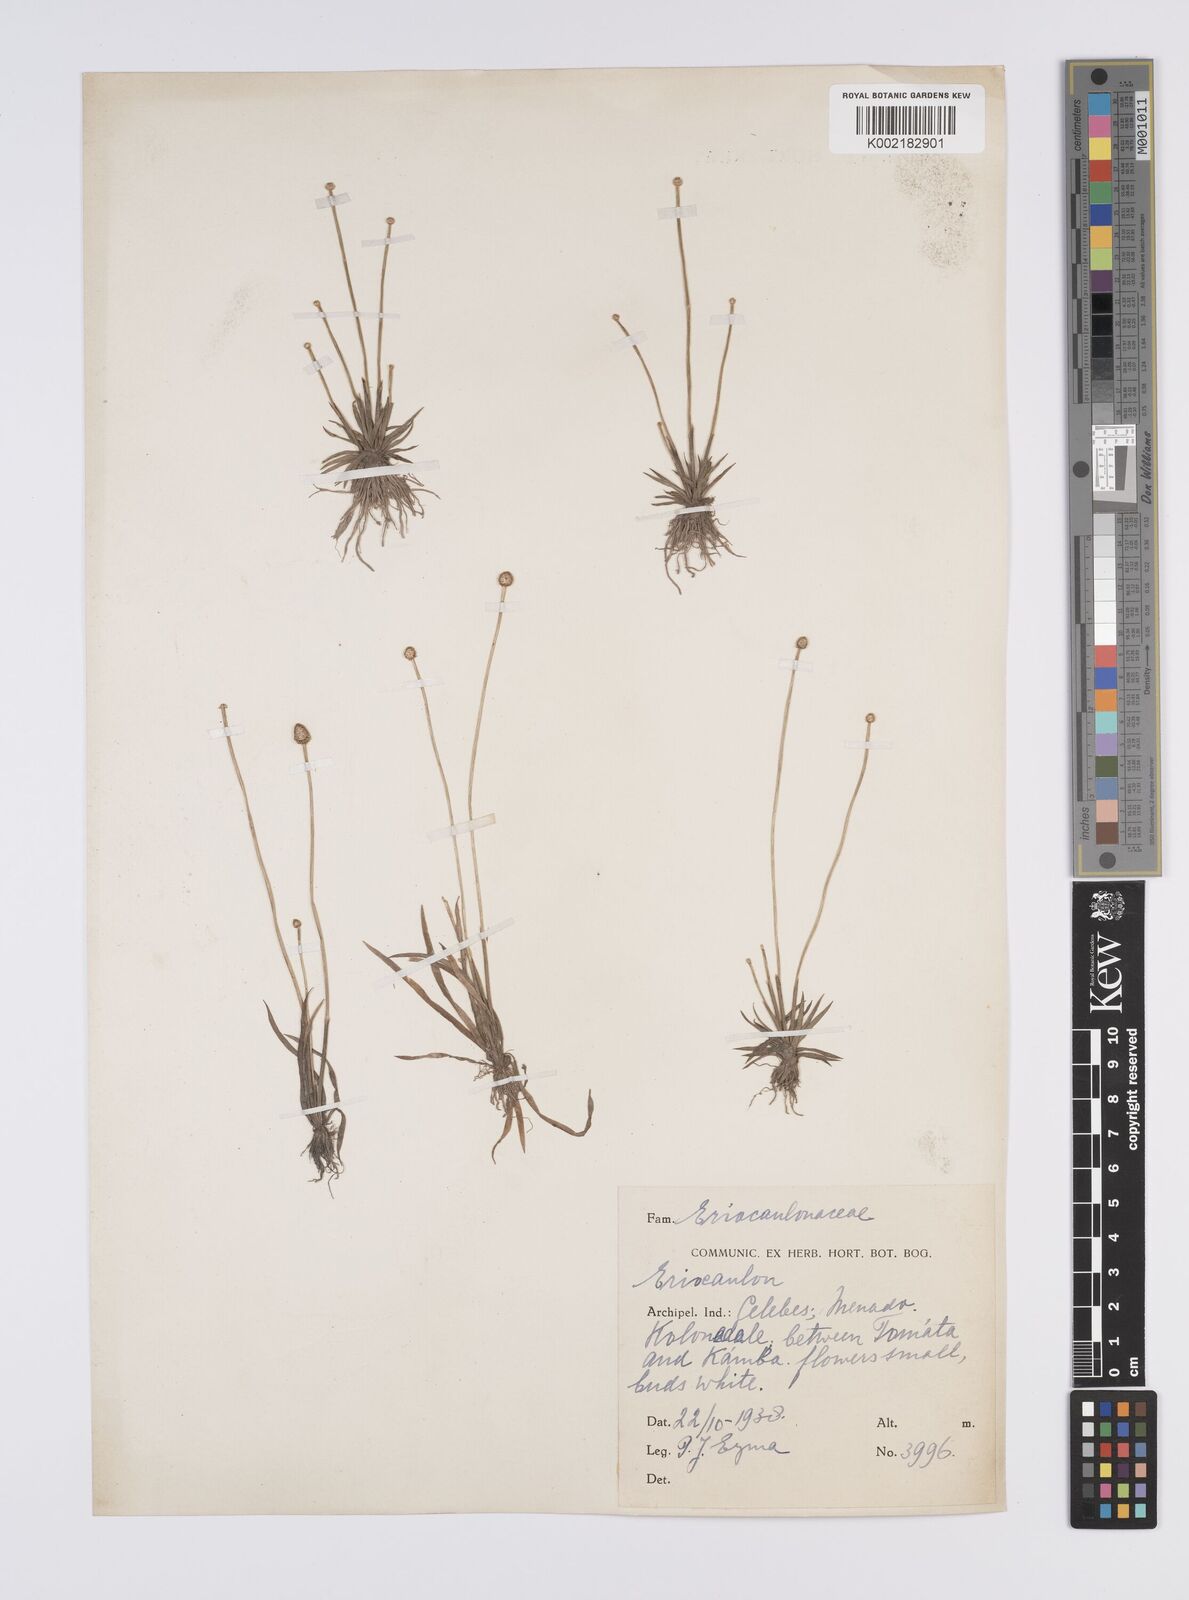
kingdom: Plantae
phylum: Tracheophyta
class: Liliopsida
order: Poales
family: Eriocaulaceae
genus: Eriocaulon
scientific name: Eriocaulon
